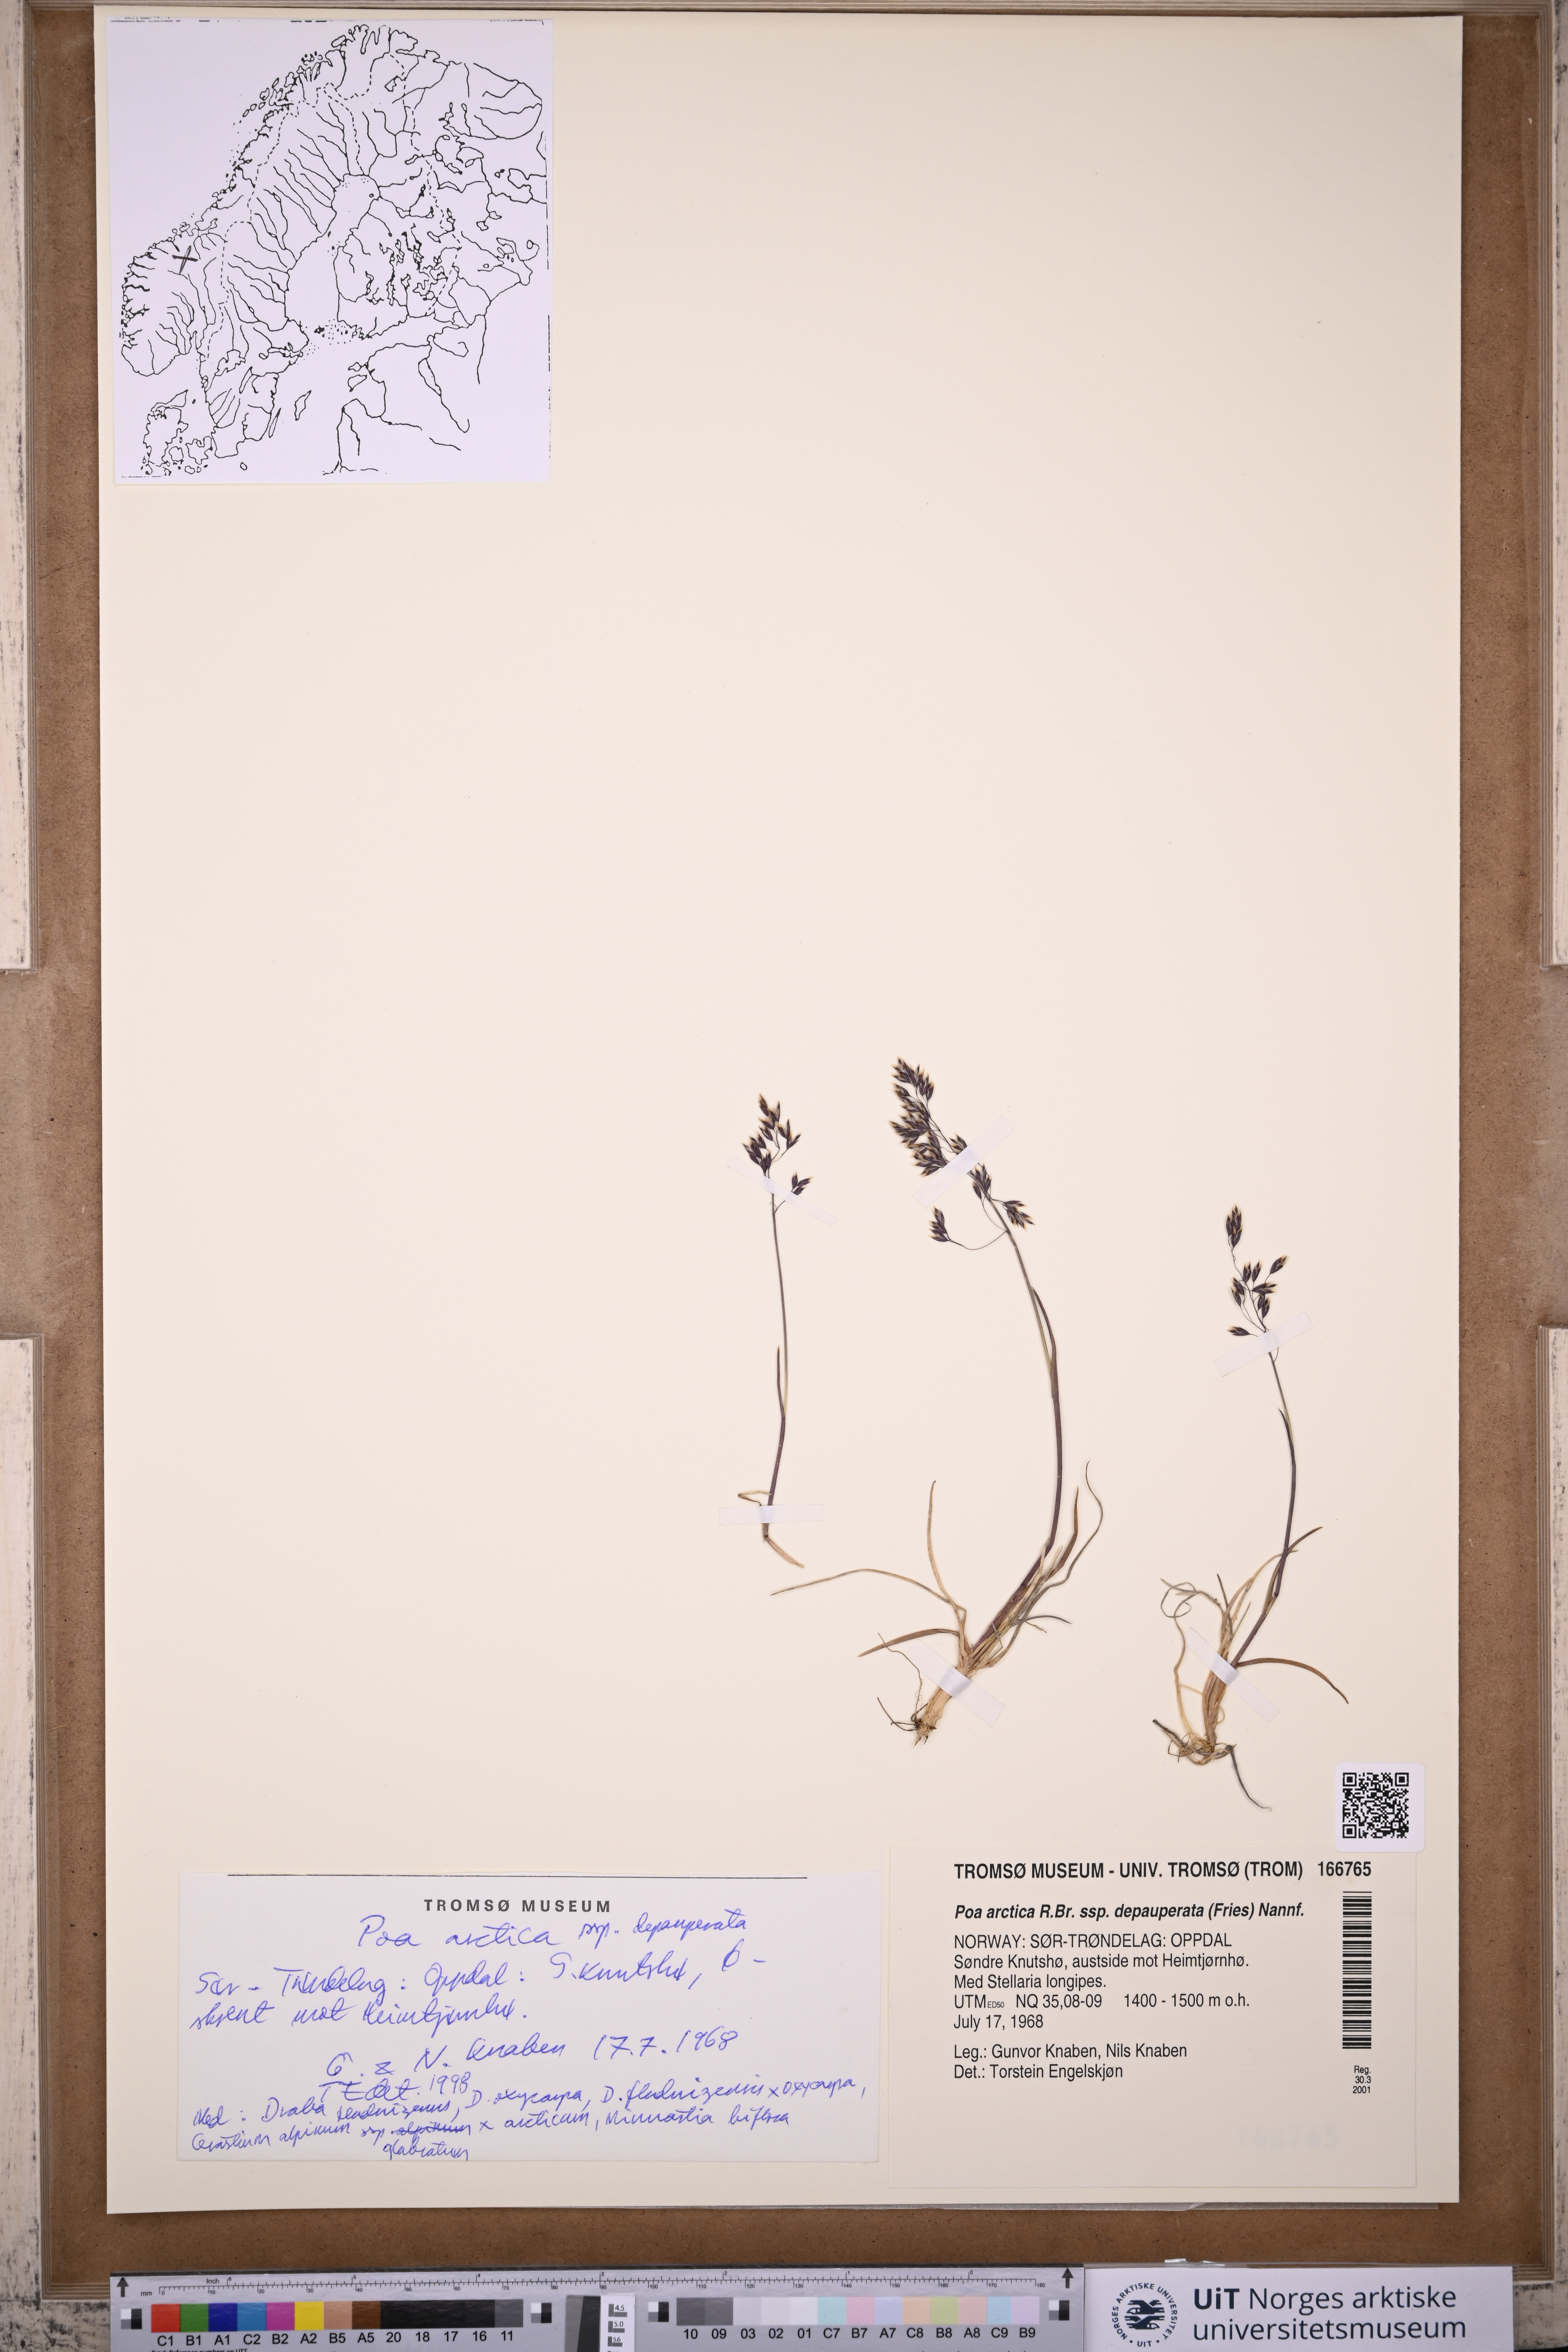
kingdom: Plantae
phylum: Tracheophyta
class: Liliopsida
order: Poales
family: Poaceae
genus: Poa
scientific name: Poa arctica
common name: Arctic bluegrass
